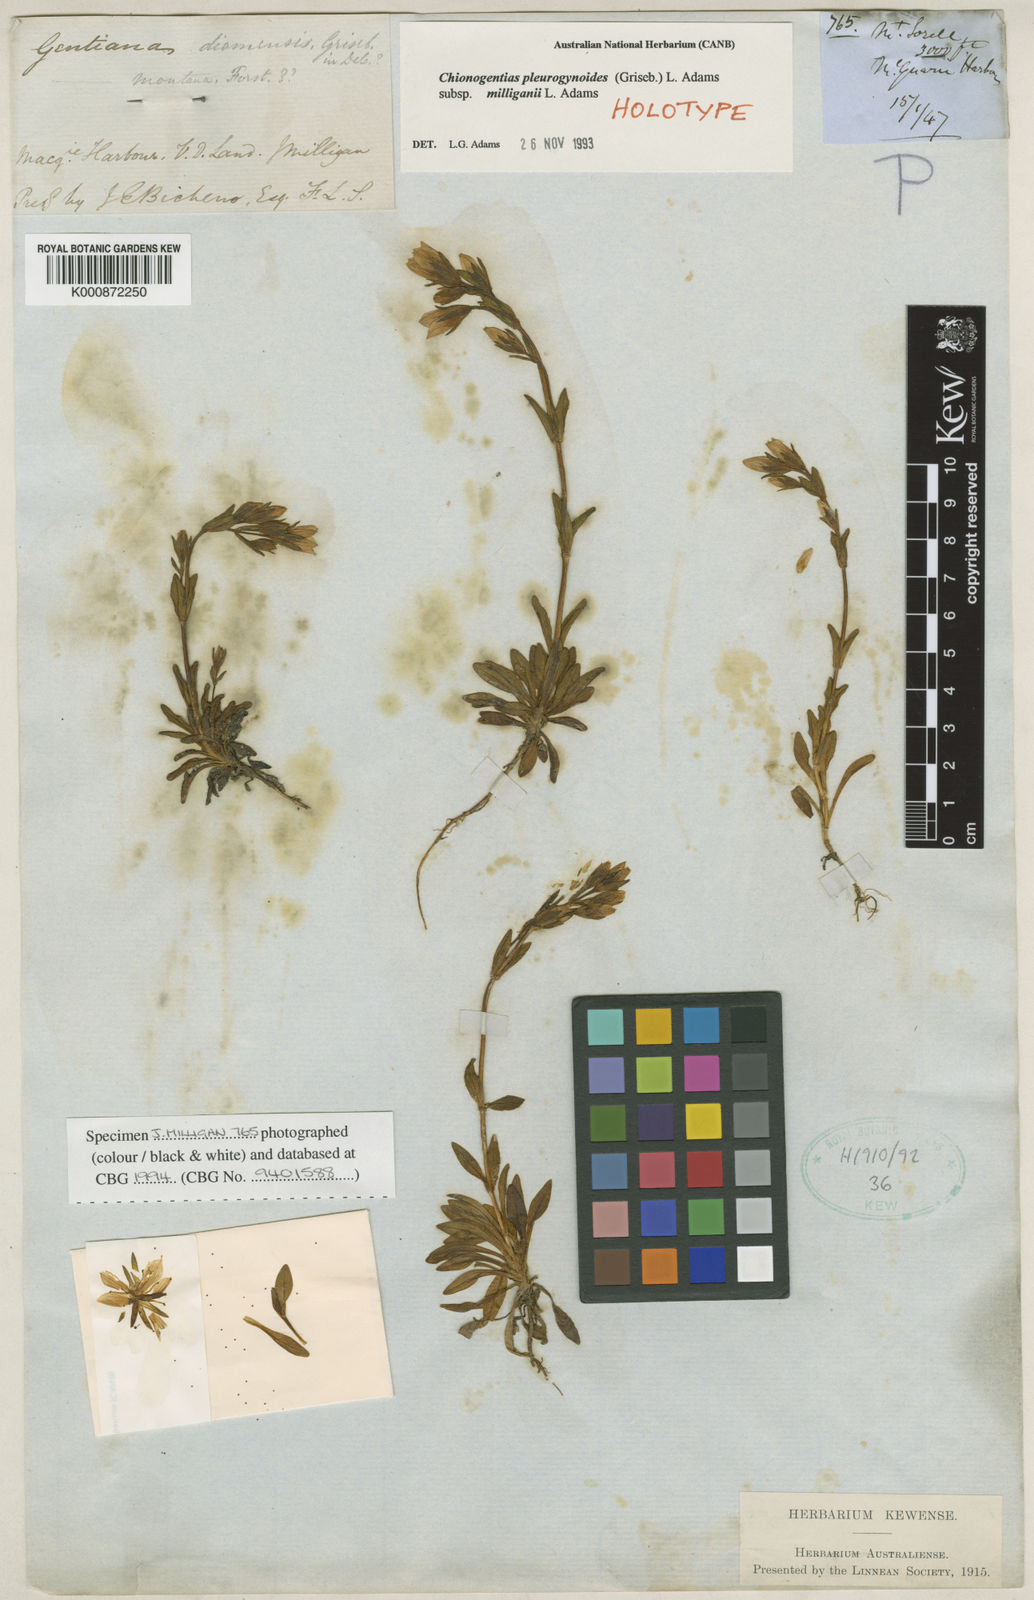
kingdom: Plantae
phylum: Tracheophyta
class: Magnoliopsida
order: Gentianales
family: Gentianaceae
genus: Gentianella
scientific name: Gentianella pleurogynoides
